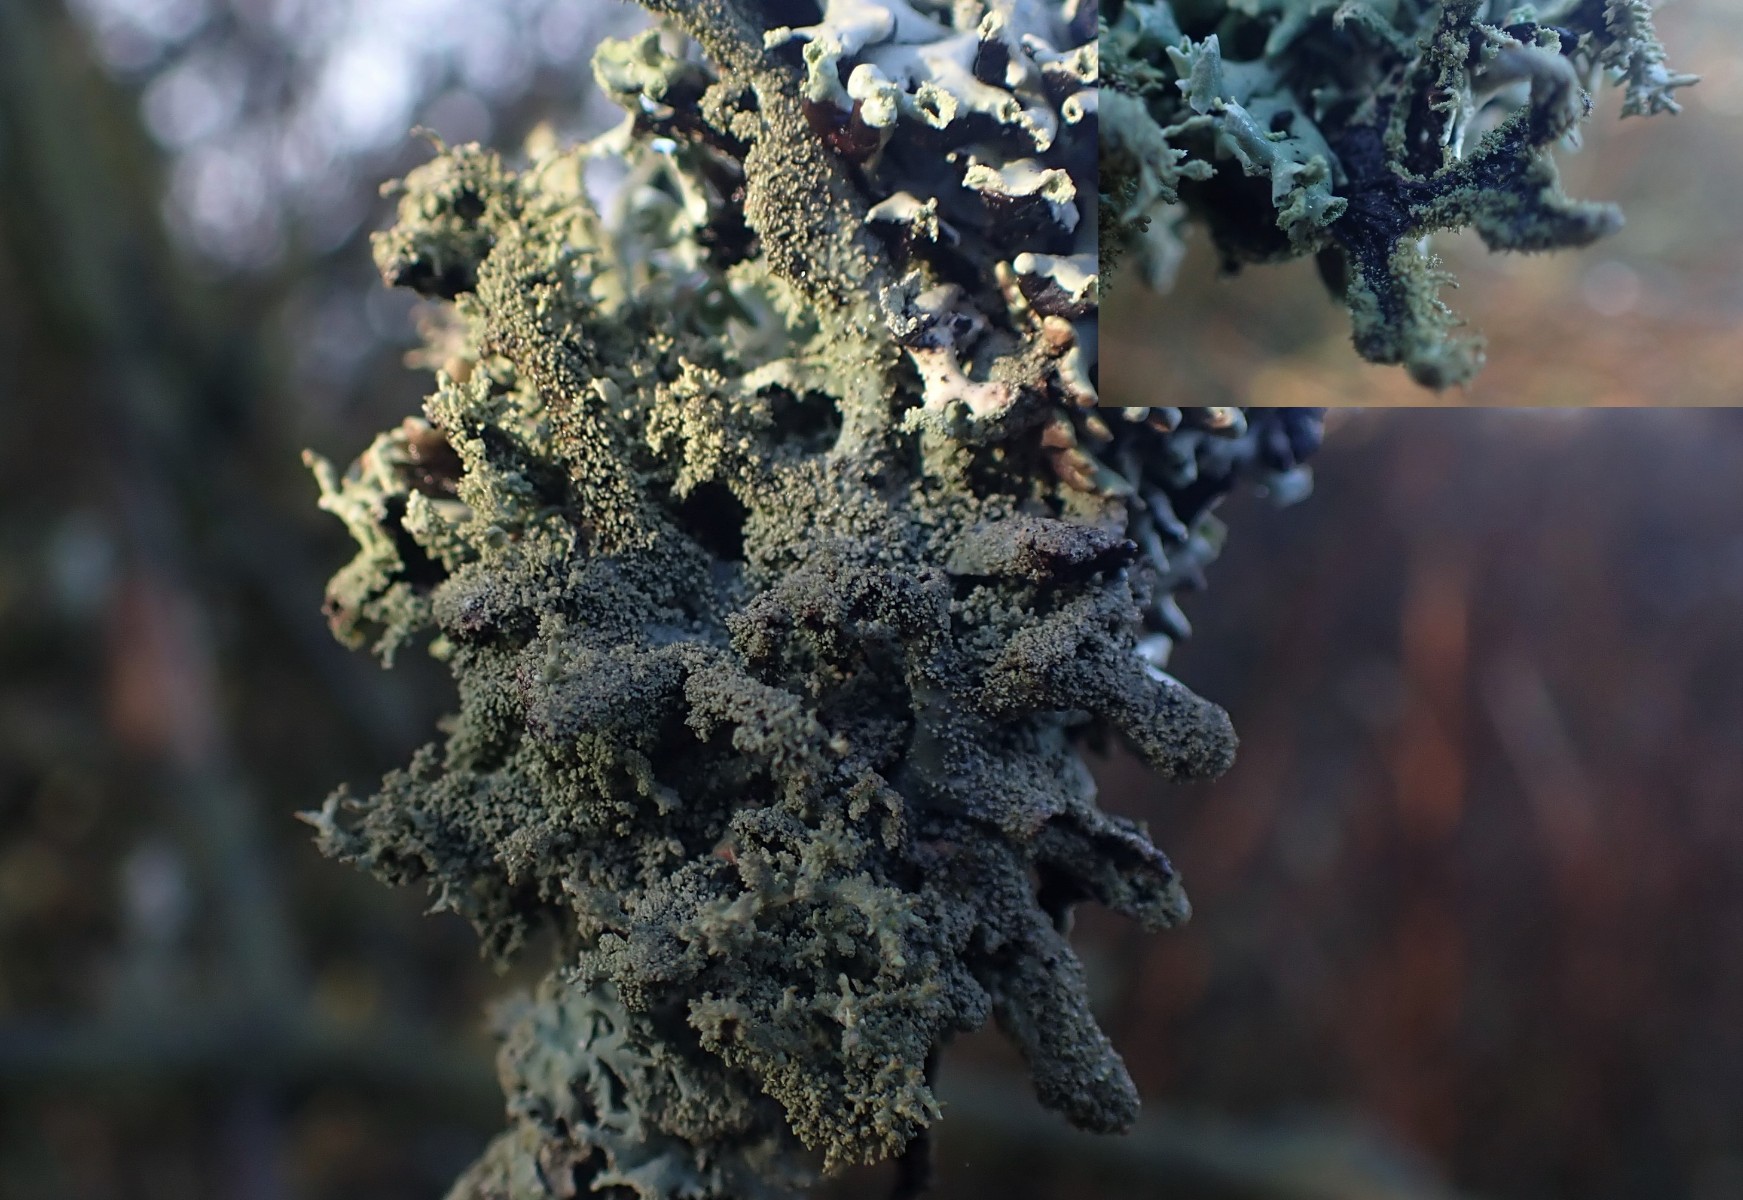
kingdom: Fungi
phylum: Ascomycota
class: Lecanoromycetes
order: Lecanorales
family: Parmeliaceae
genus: Pseudevernia
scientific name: Pseudevernia furfuracea
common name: grå fyrrelav
